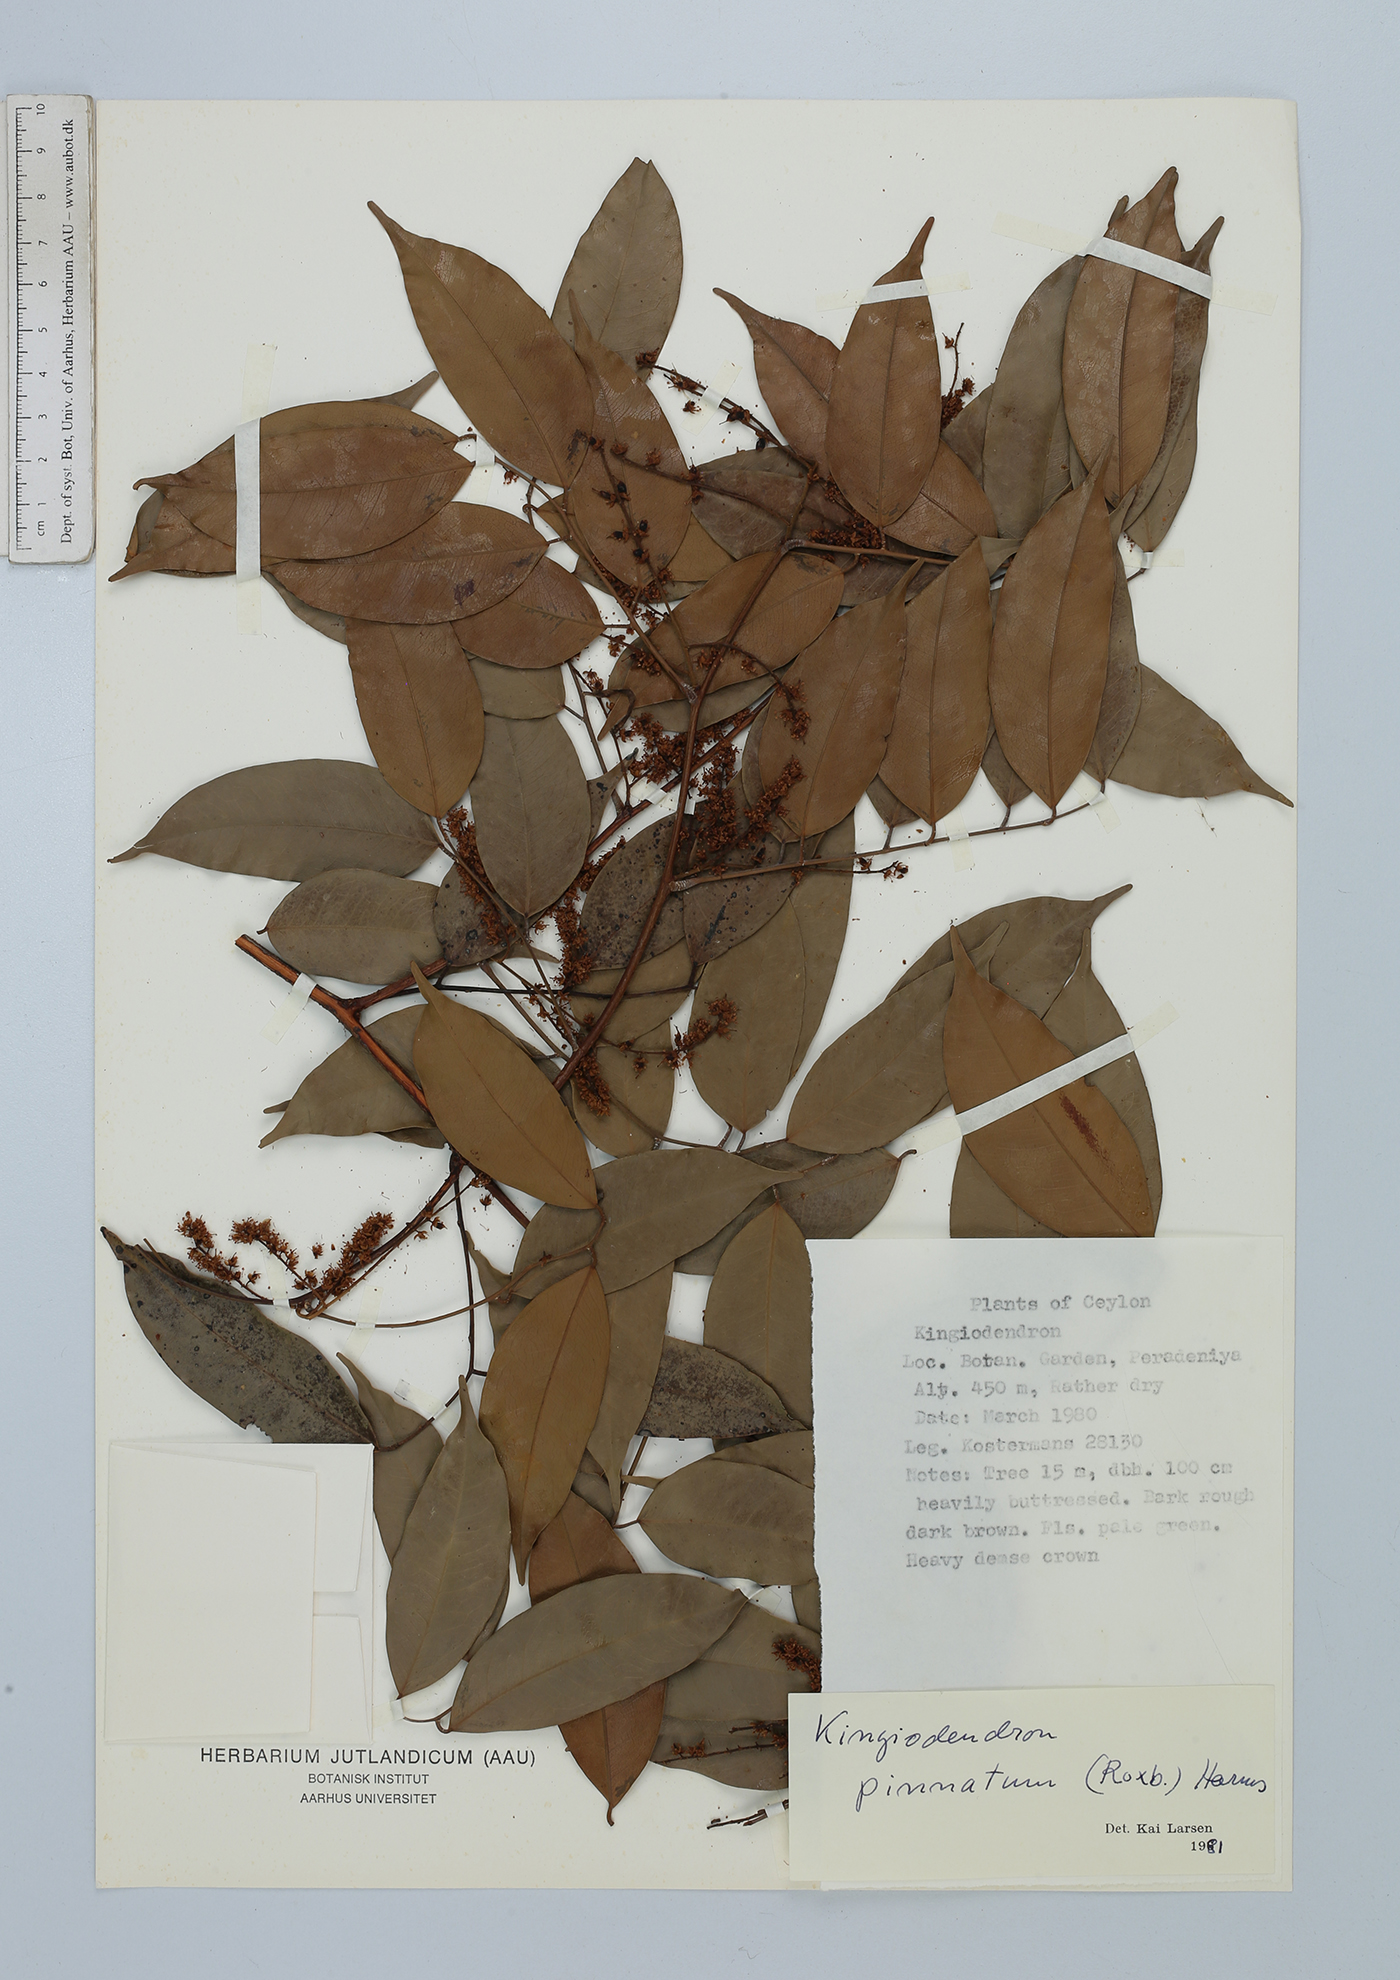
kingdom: Plantae
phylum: Tracheophyta
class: Magnoliopsida
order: Fabales
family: Fabaceae
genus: Prioria
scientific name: Prioria pinnata
